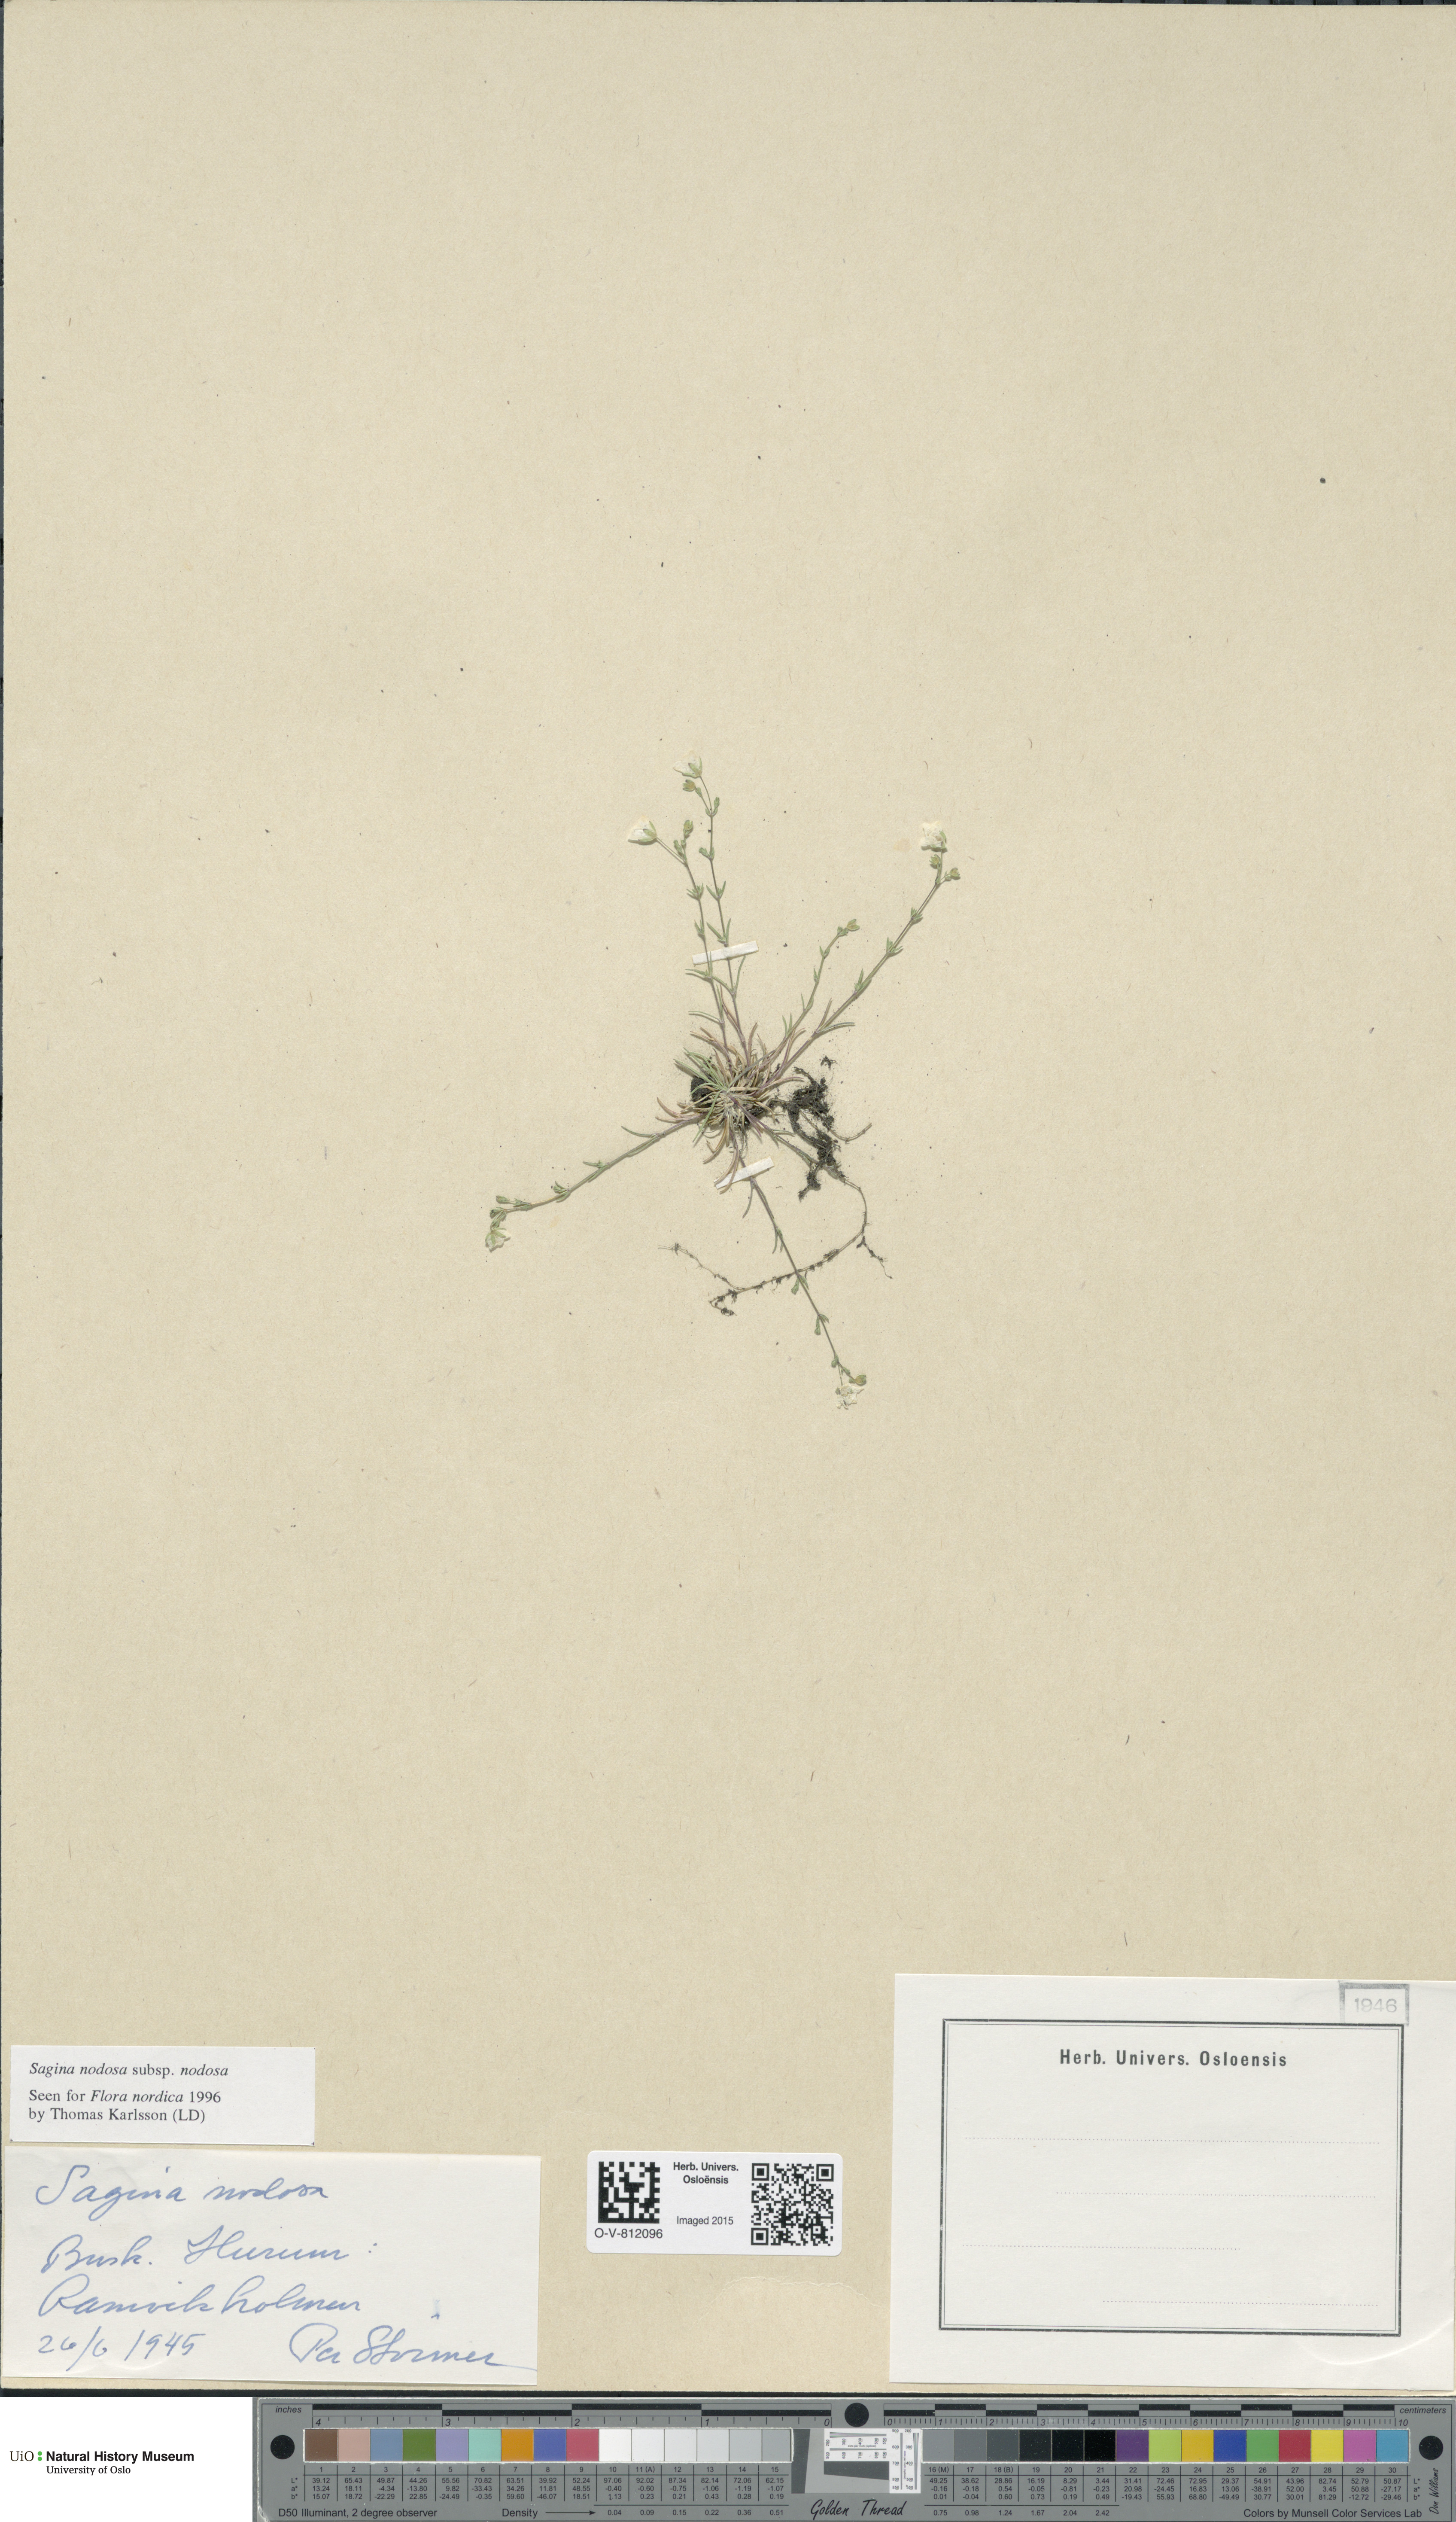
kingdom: Plantae
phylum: Tracheophyta
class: Magnoliopsida
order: Caryophyllales
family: Caryophyllaceae
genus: Sagina
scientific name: Sagina nodosa
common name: Knotted pearlwort
